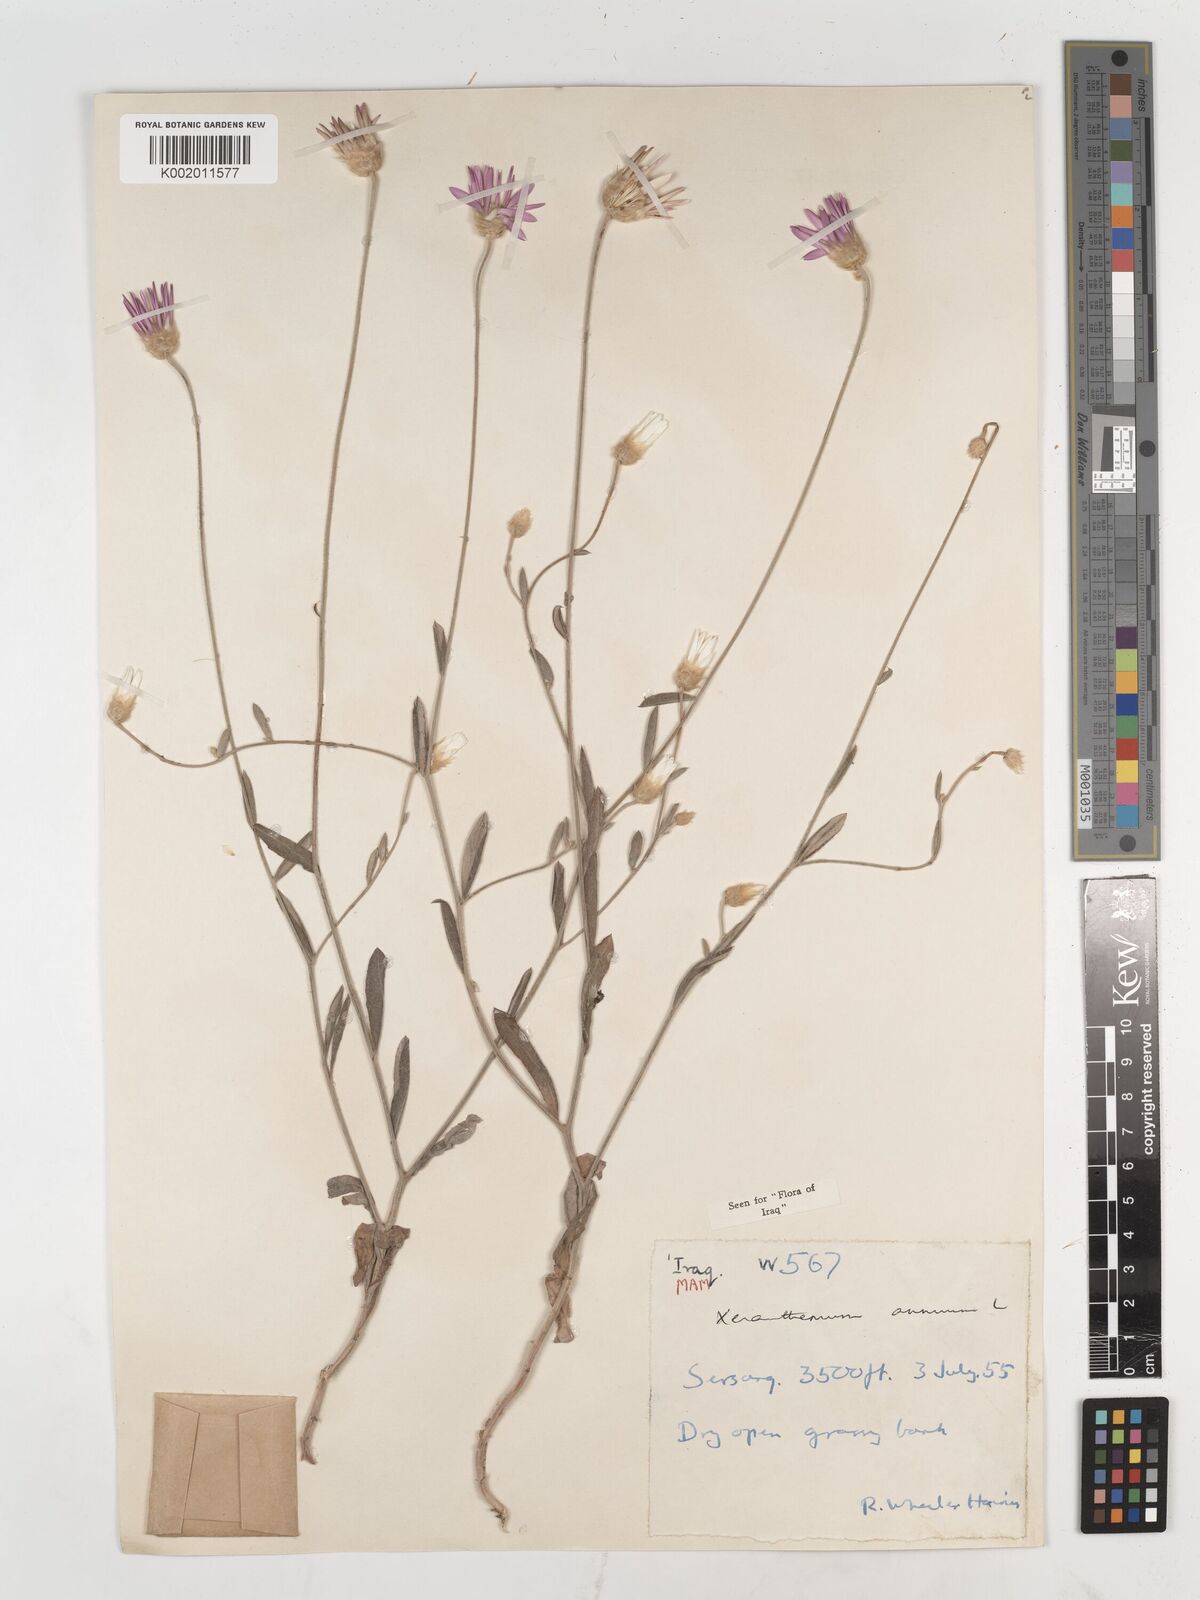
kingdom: Plantae
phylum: Tracheophyta
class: Magnoliopsida
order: Asterales
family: Asteraceae
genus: Xeranthemum
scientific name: Xeranthemum annuum
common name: Immortelle
